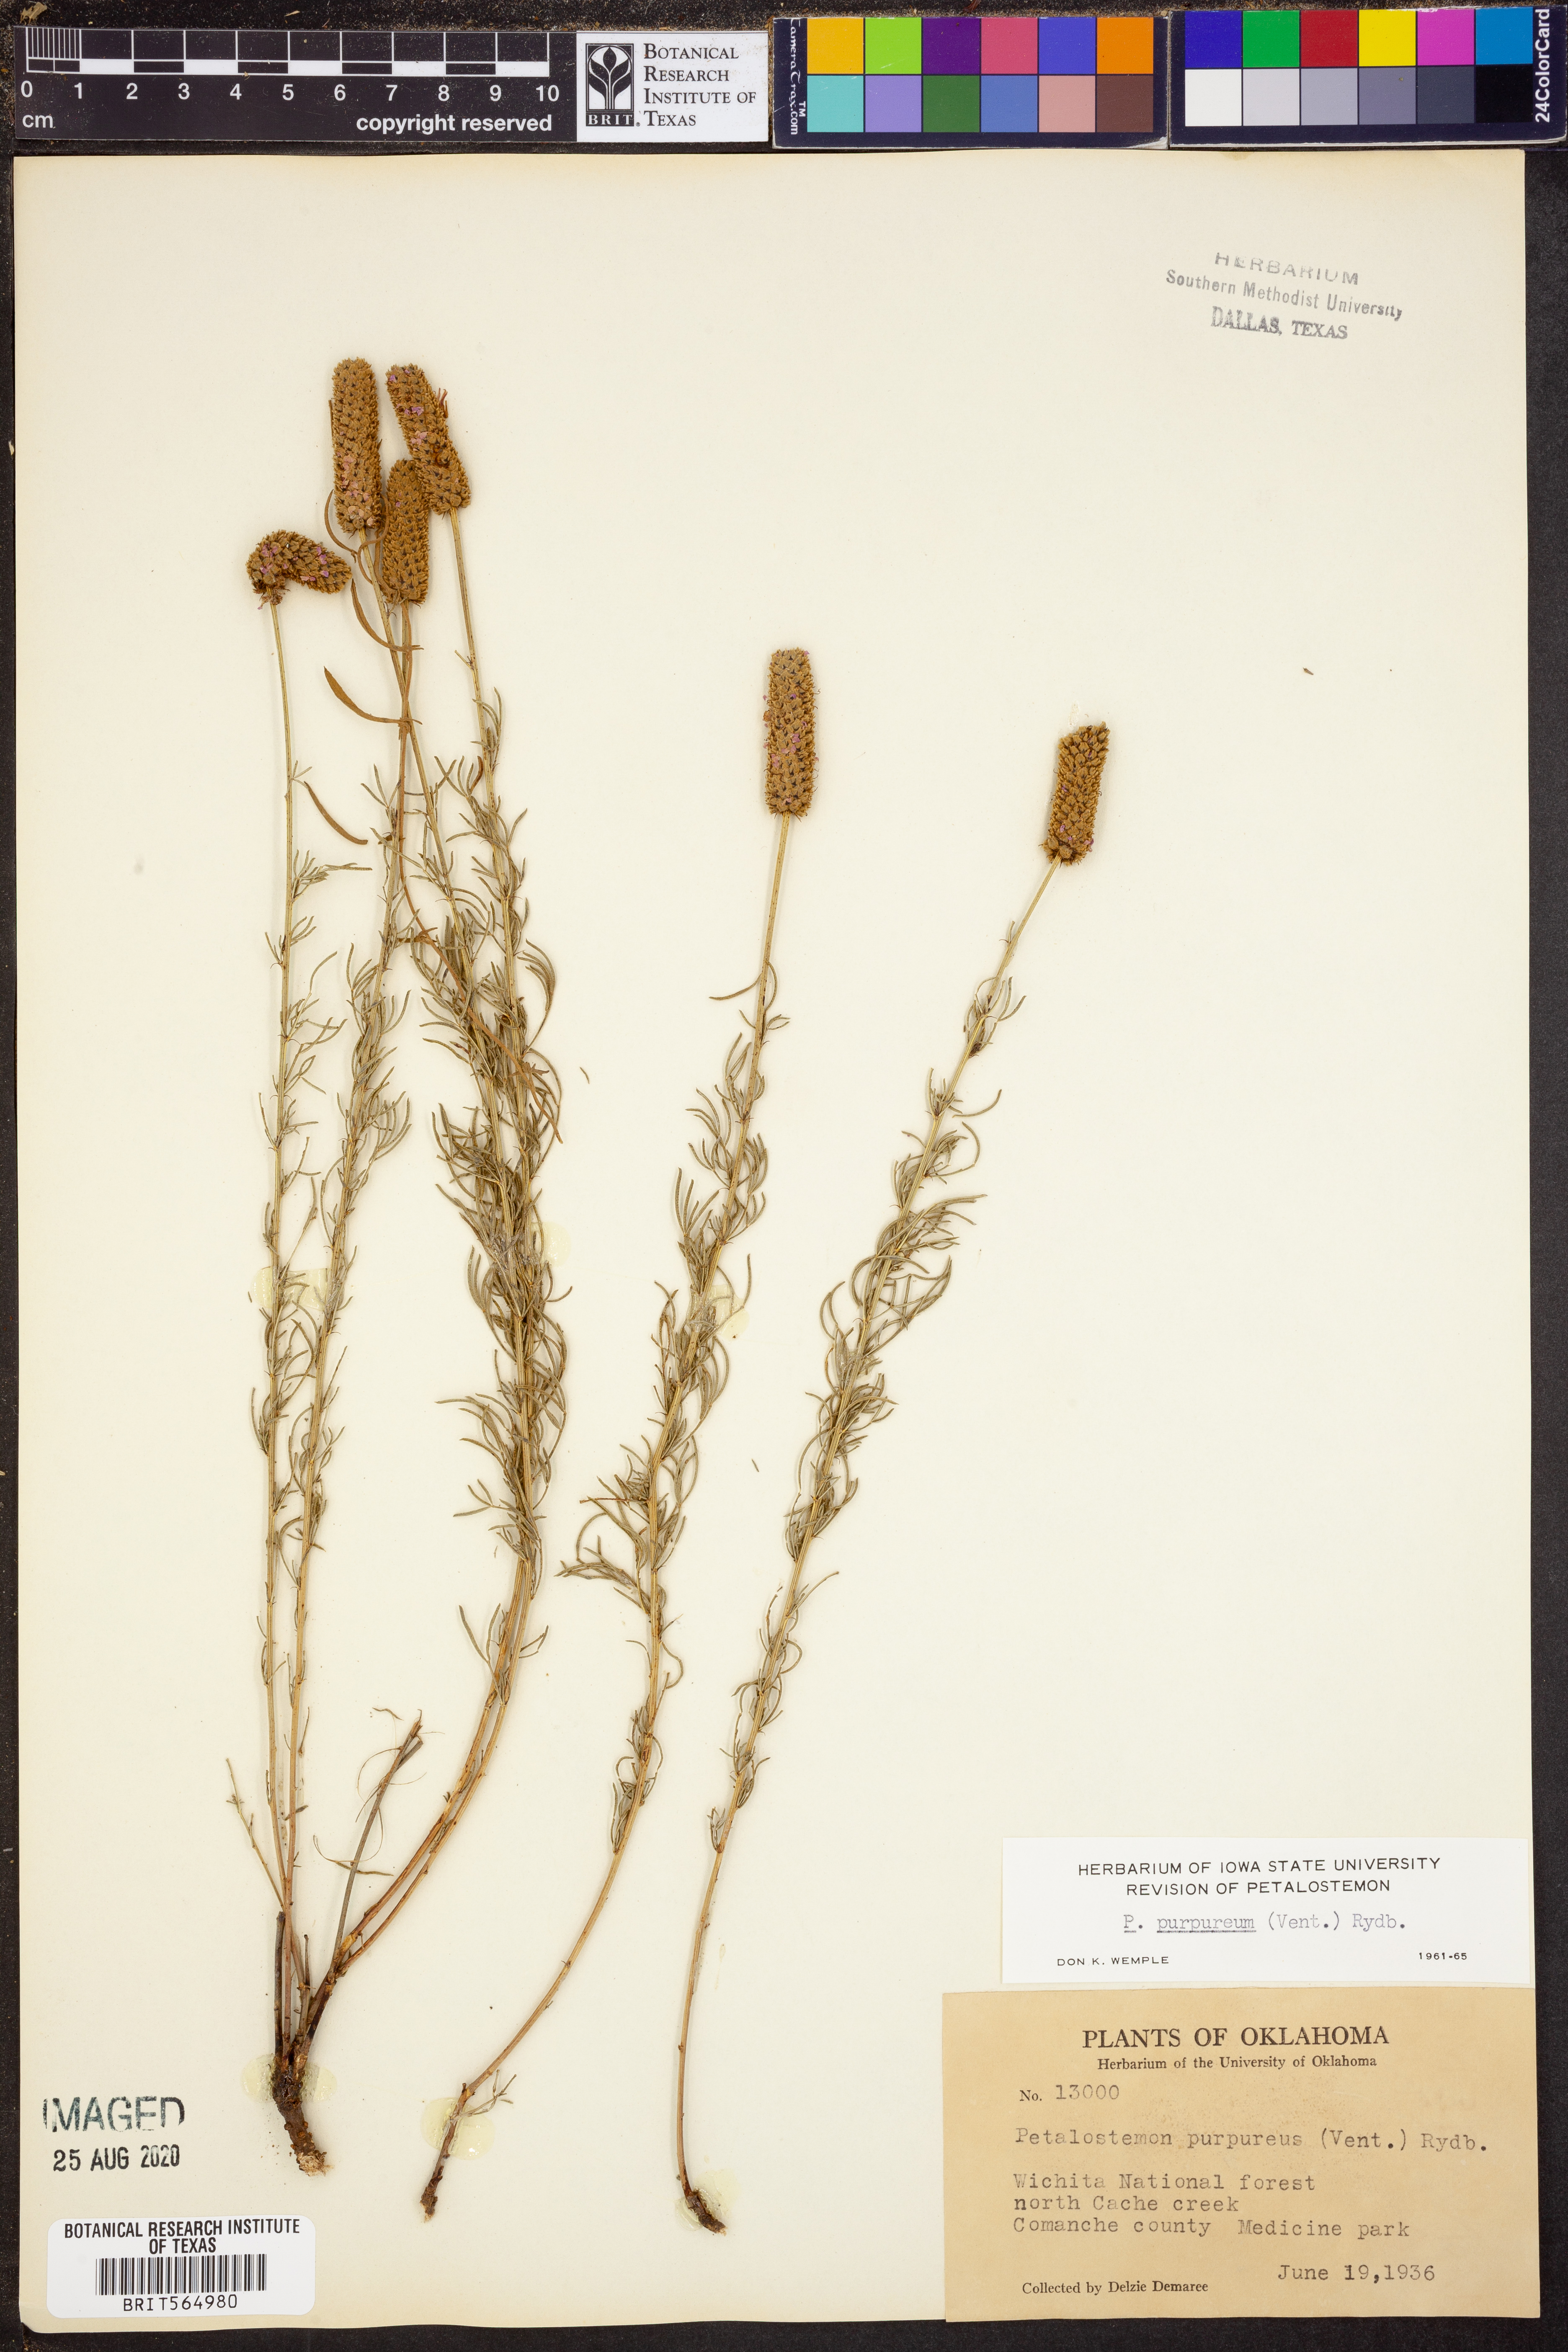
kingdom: Plantae
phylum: Tracheophyta
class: Magnoliopsida
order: Fabales
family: Fabaceae
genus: Dalea
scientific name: Dalea purpurea
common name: Purple prairie-clover
